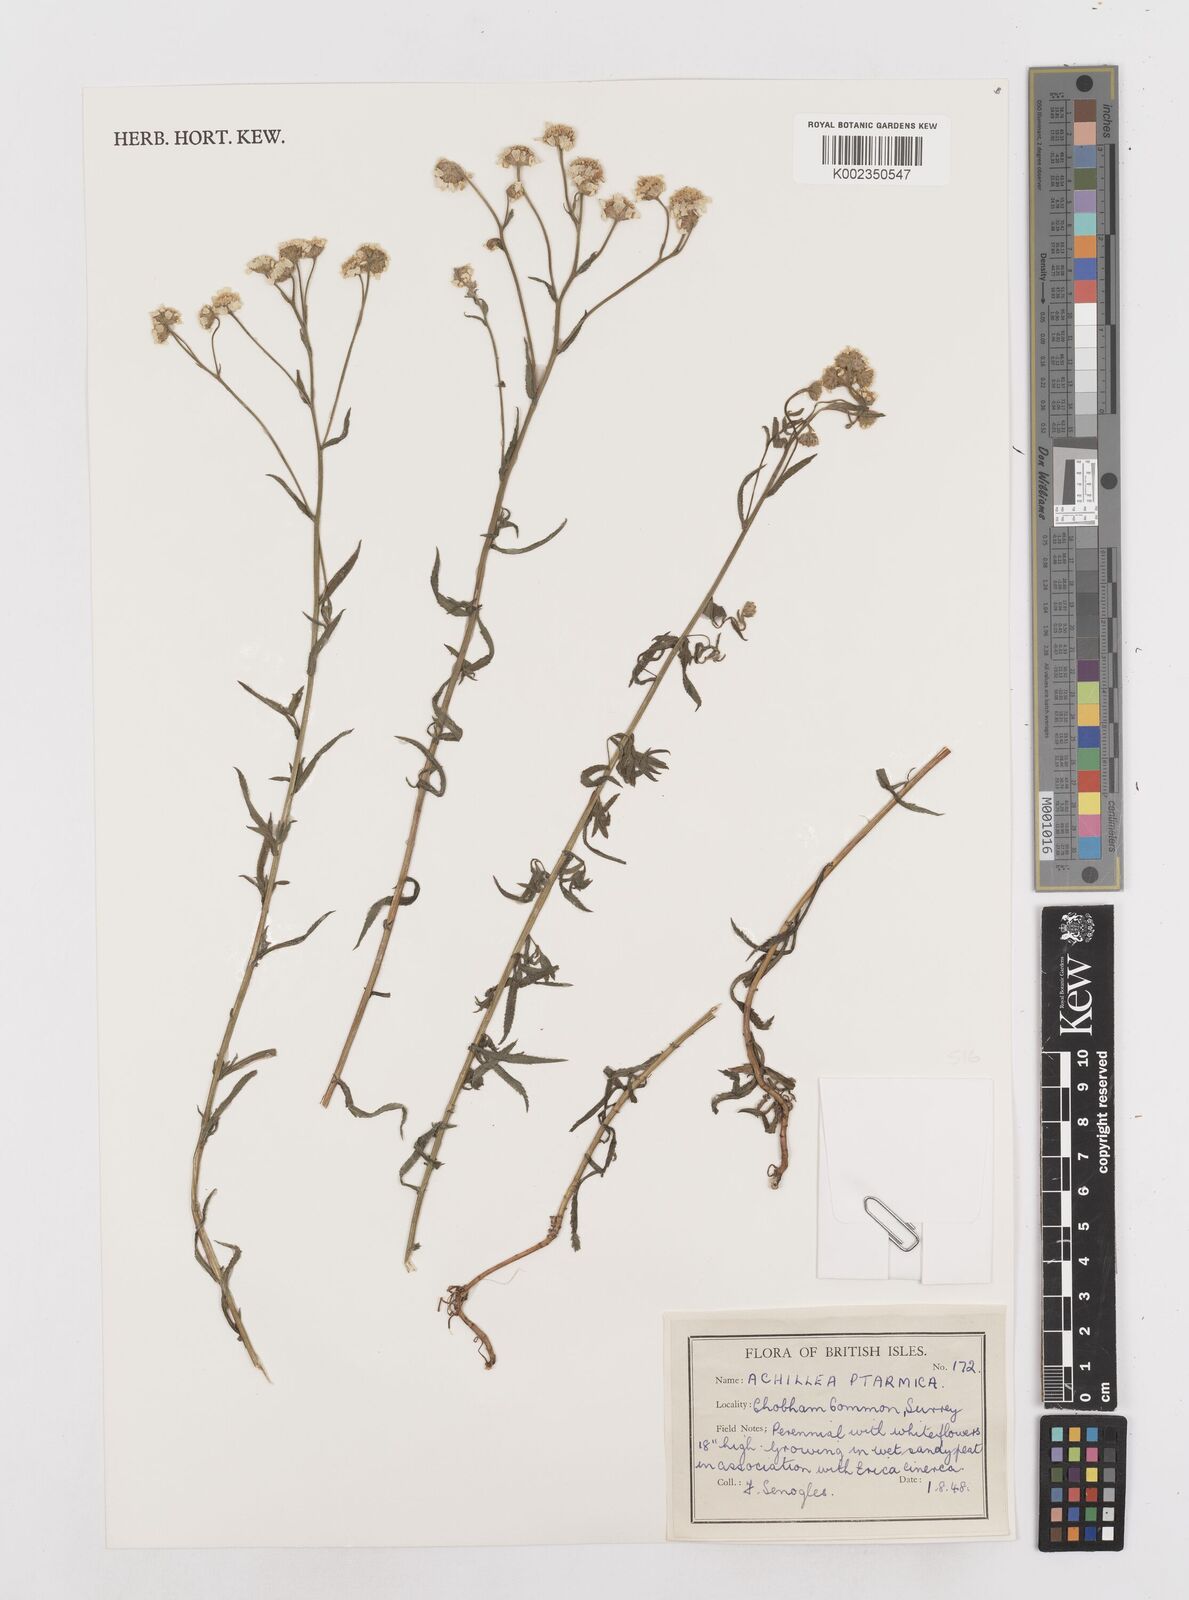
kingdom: Plantae
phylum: Tracheophyta
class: Magnoliopsida
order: Asterales
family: Asteraceae
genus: Achillea
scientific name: Achillea ptarmica
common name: Sneezeweed
